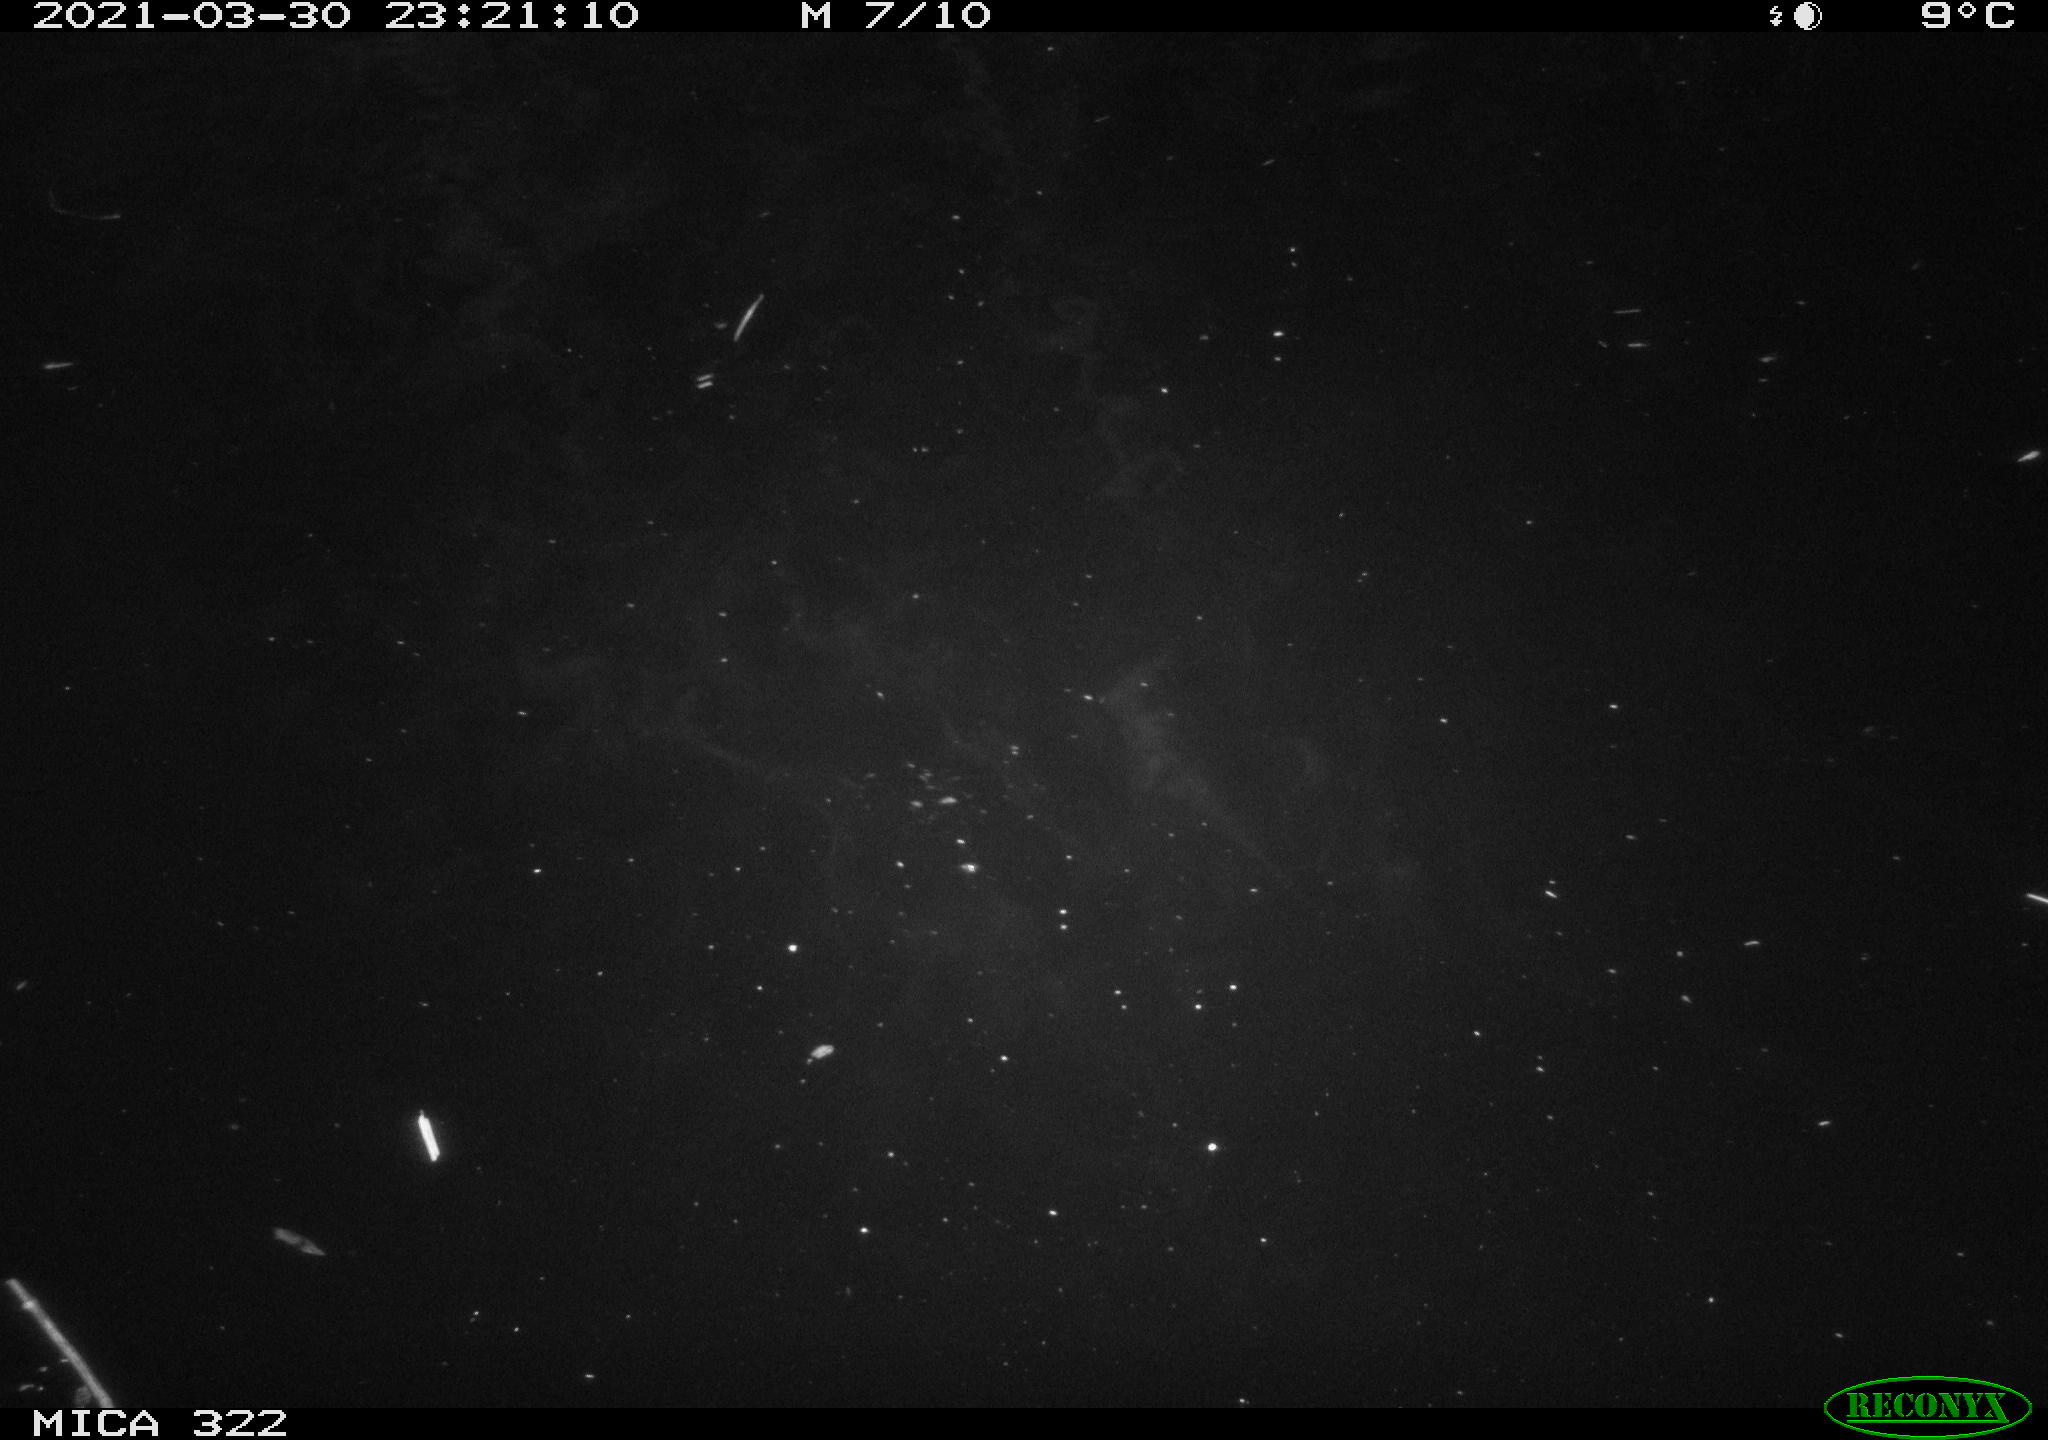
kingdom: Animalia
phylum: Chordata
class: Aves
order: Anseriformes
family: Anatidae
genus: Anas
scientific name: Anas platyrhynchos
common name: Mallard
